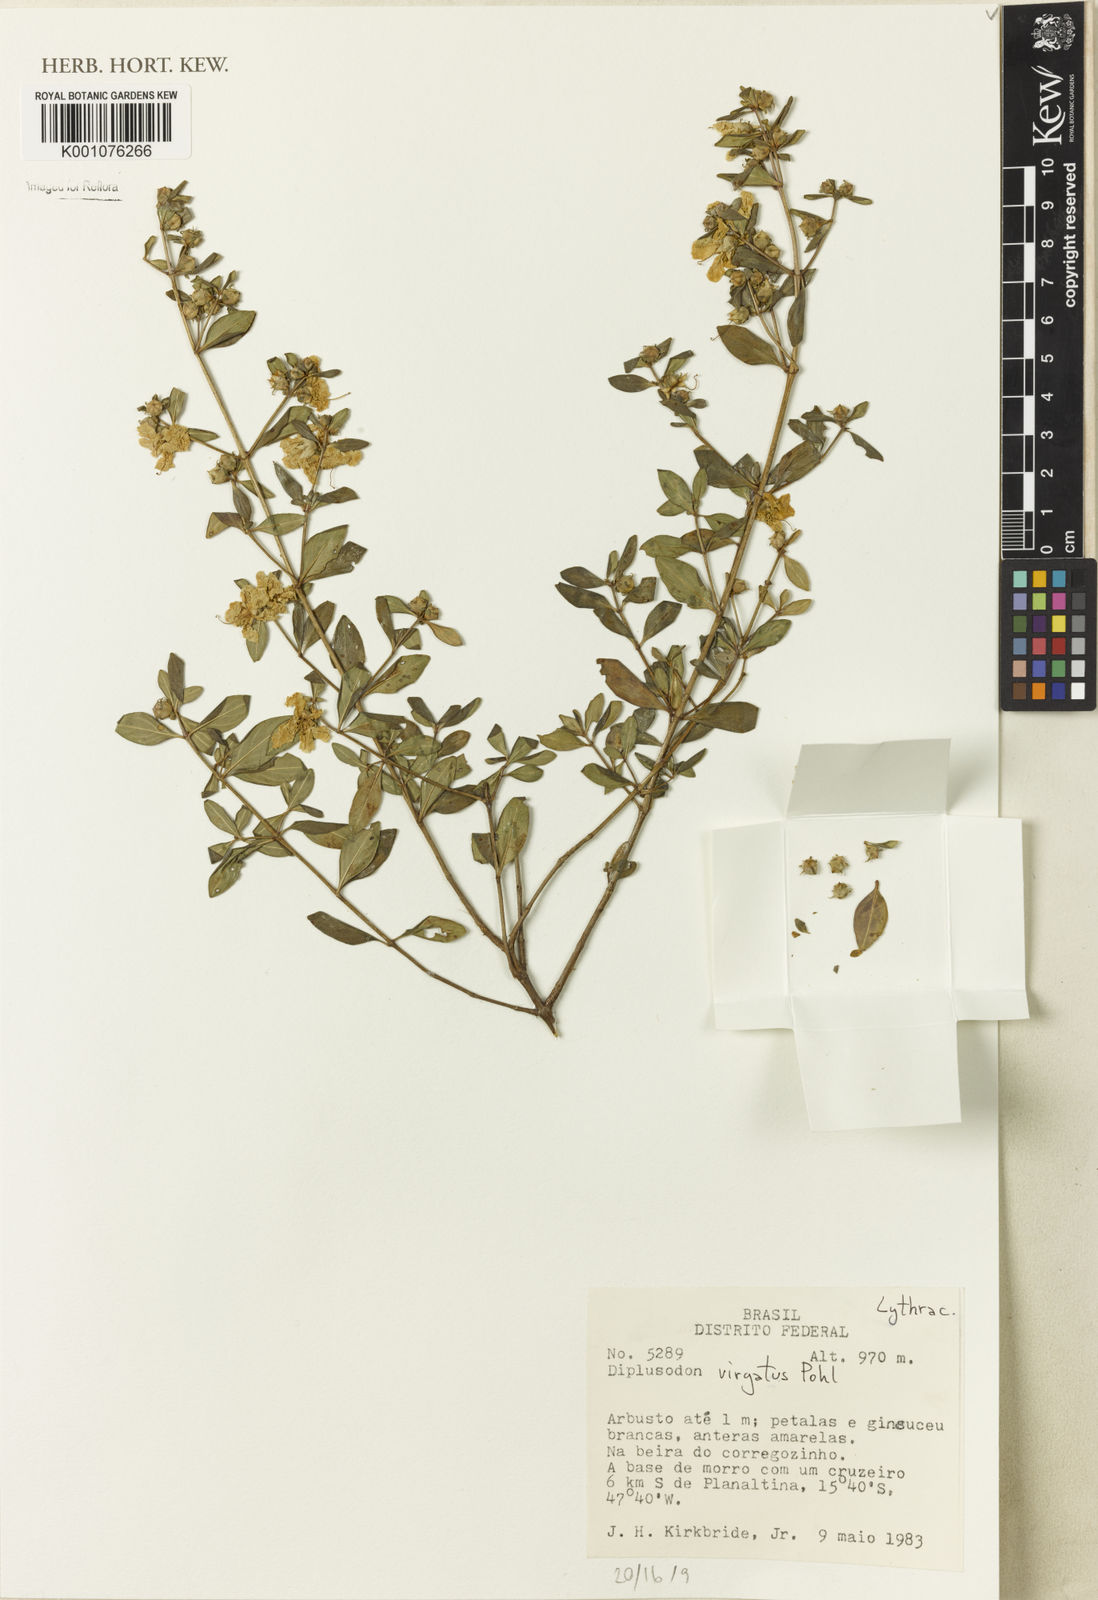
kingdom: Plantae
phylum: Tracheophyta
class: Magnoliopsida
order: Myrtales
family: Lythraceae
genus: Diplusodon
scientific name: Diplusodon virgatus
